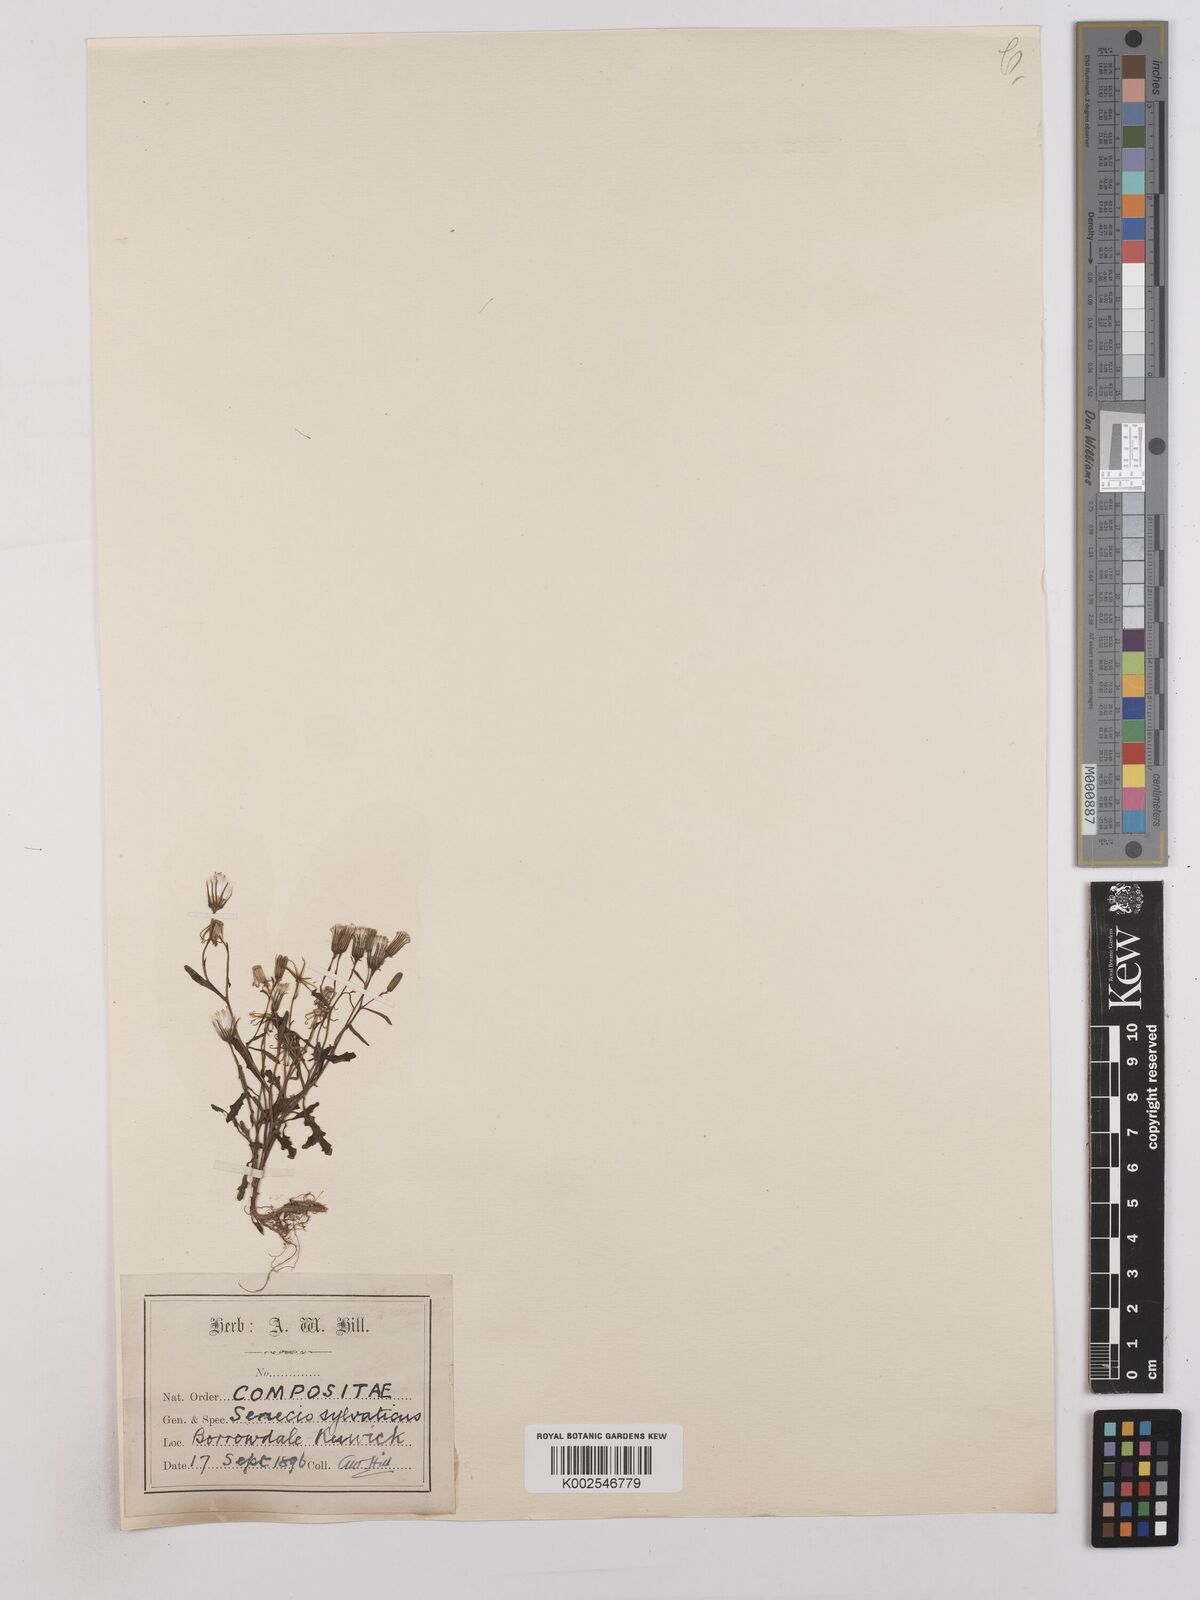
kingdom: Plantae
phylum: Tracheophyta
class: Magnoliopsida
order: Asterales
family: Asteraceae
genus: Senecio
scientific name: Senecio sylvaticus
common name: Woodland ragwort
